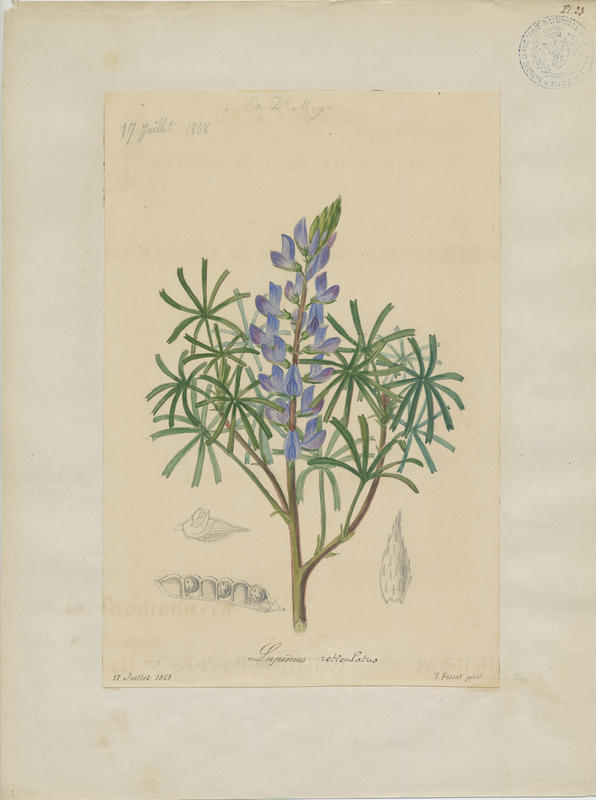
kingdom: Plantae
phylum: Tracheophyta
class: Magnoliopsida
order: Fabales
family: Fabaceae
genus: Lupinus
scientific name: Lupinus angustifolius
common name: Narrow-leaved lupin
